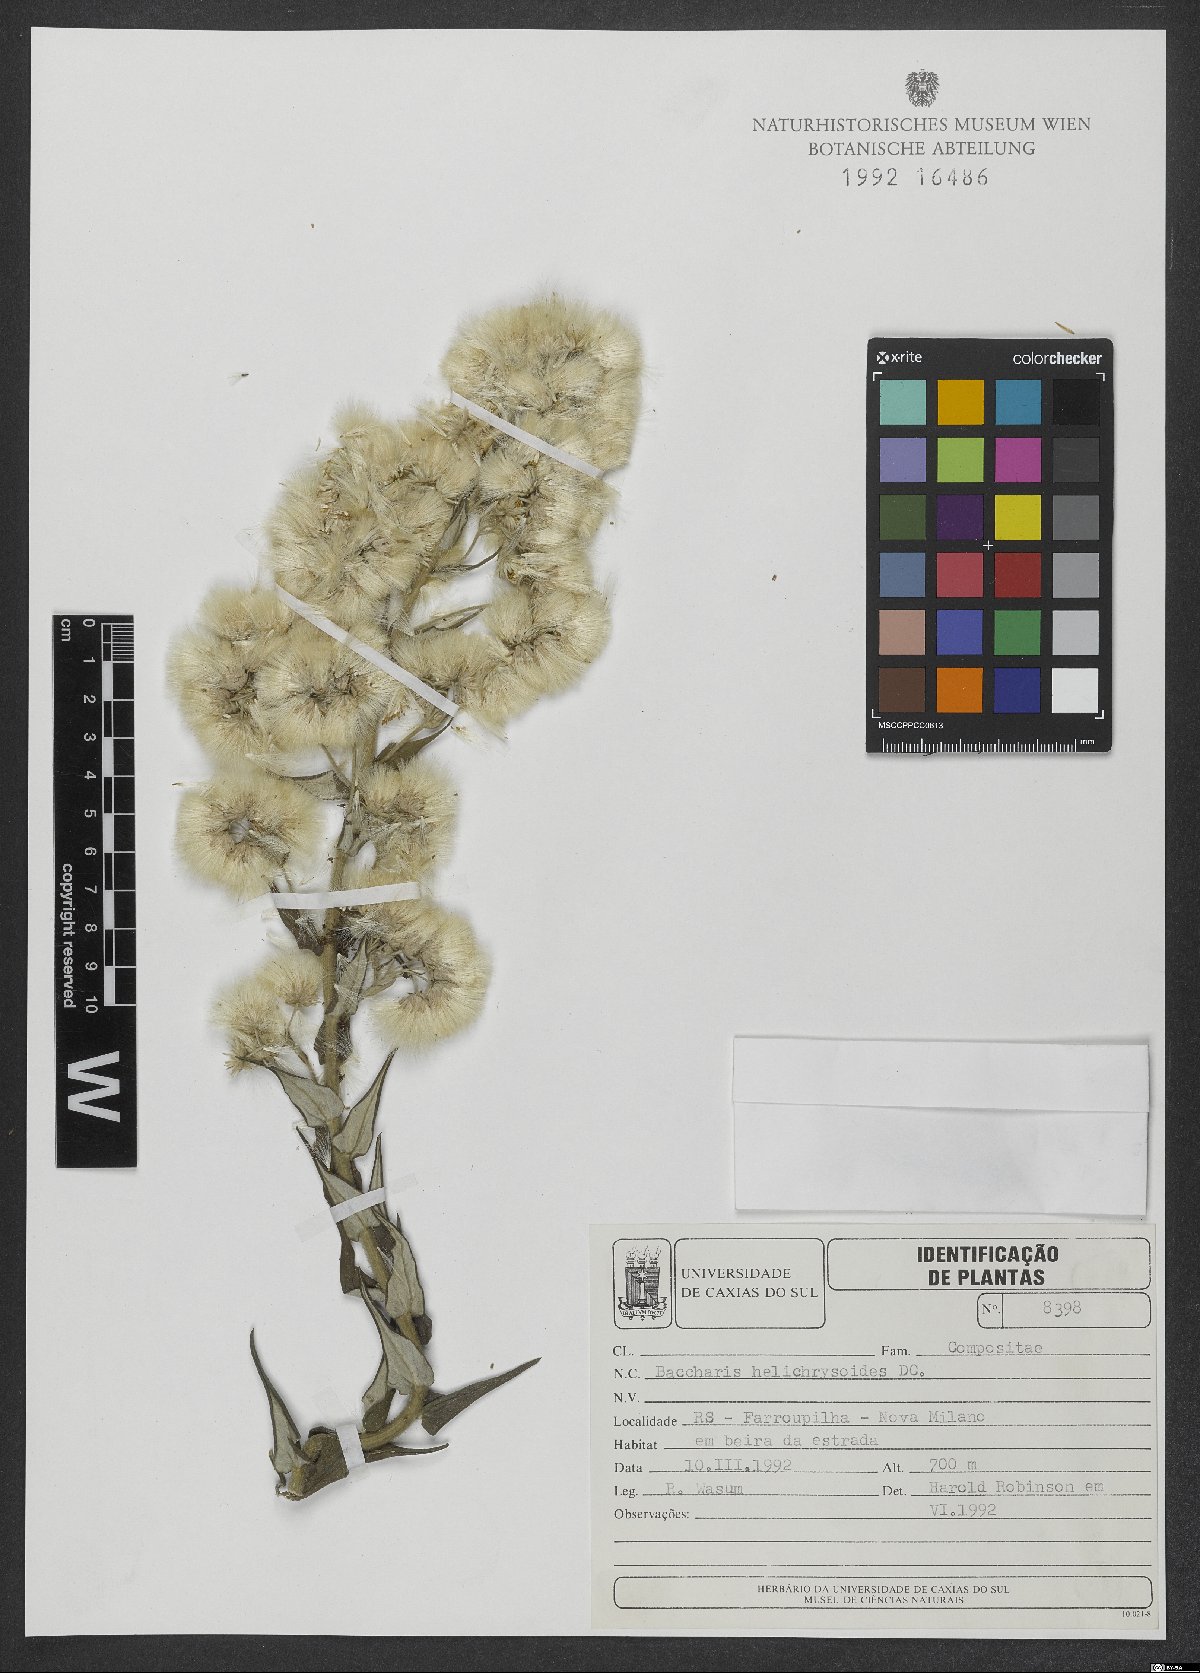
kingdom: Plantae
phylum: Tracheophyta
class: Magnoliopsida
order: Asterales
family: Asteraceae
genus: Baccharis
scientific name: Baccharis helichrysoides
